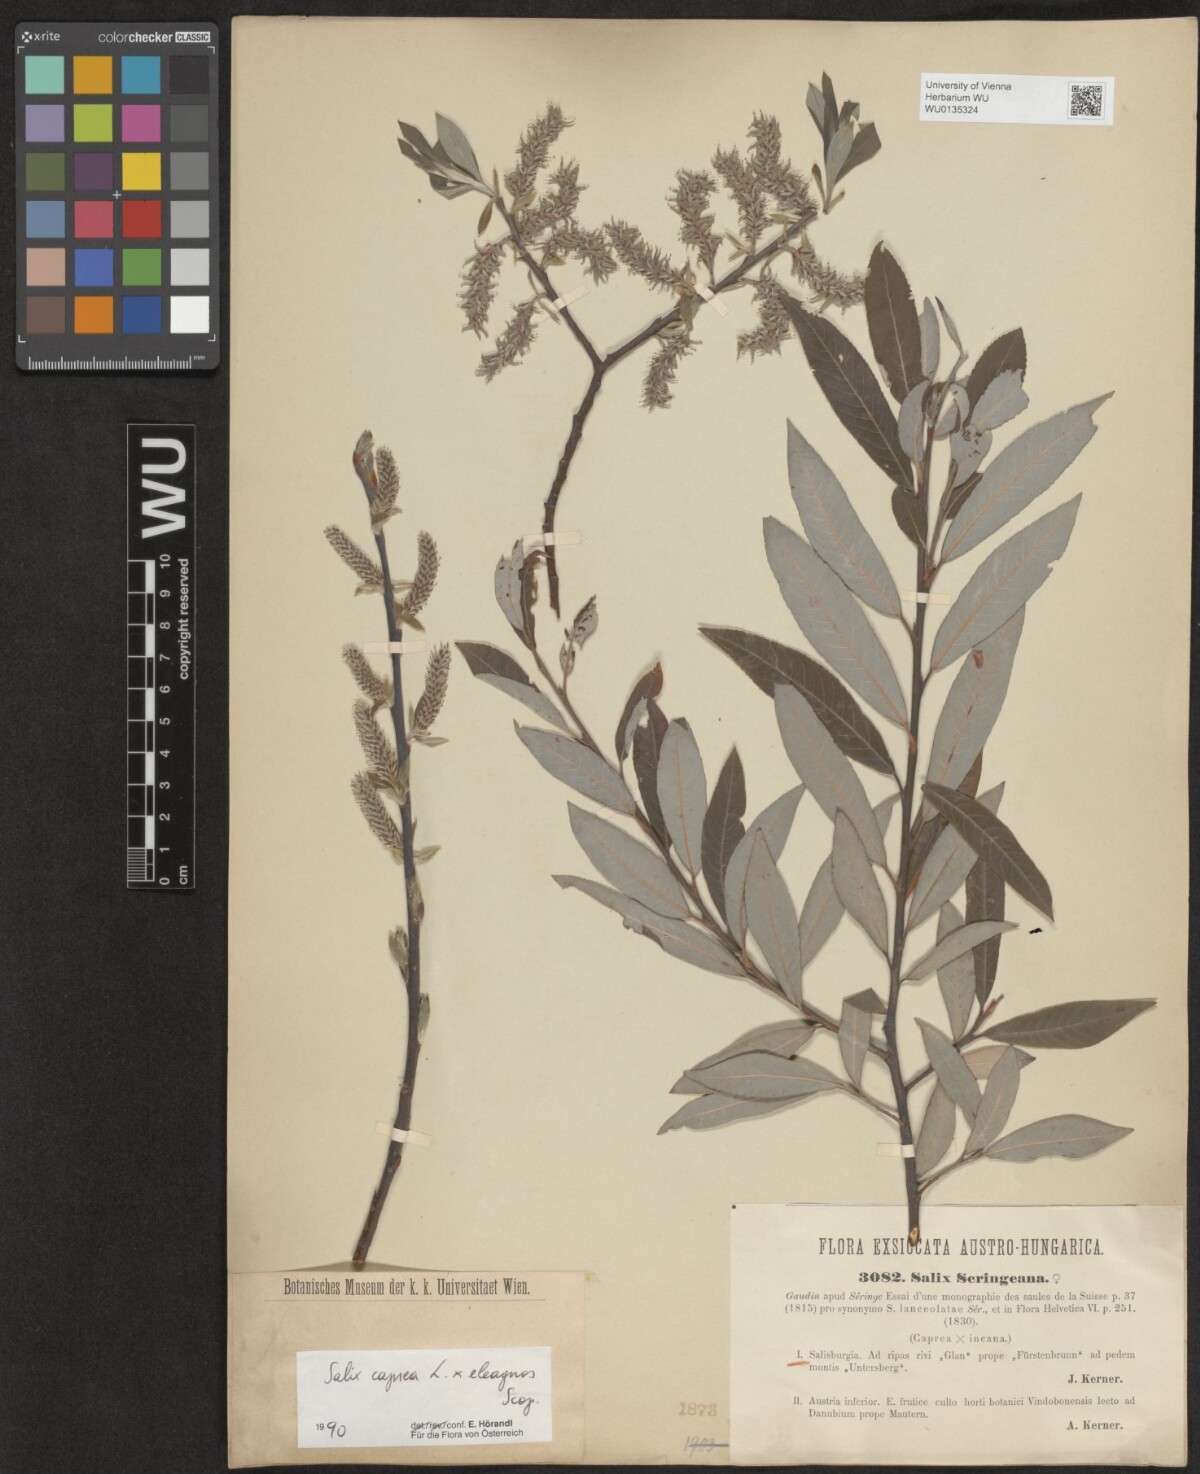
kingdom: Plantae
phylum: Tracheophyta
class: Magnoliopsida
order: Malpighiales
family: Salicaceae
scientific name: Salicaceae
